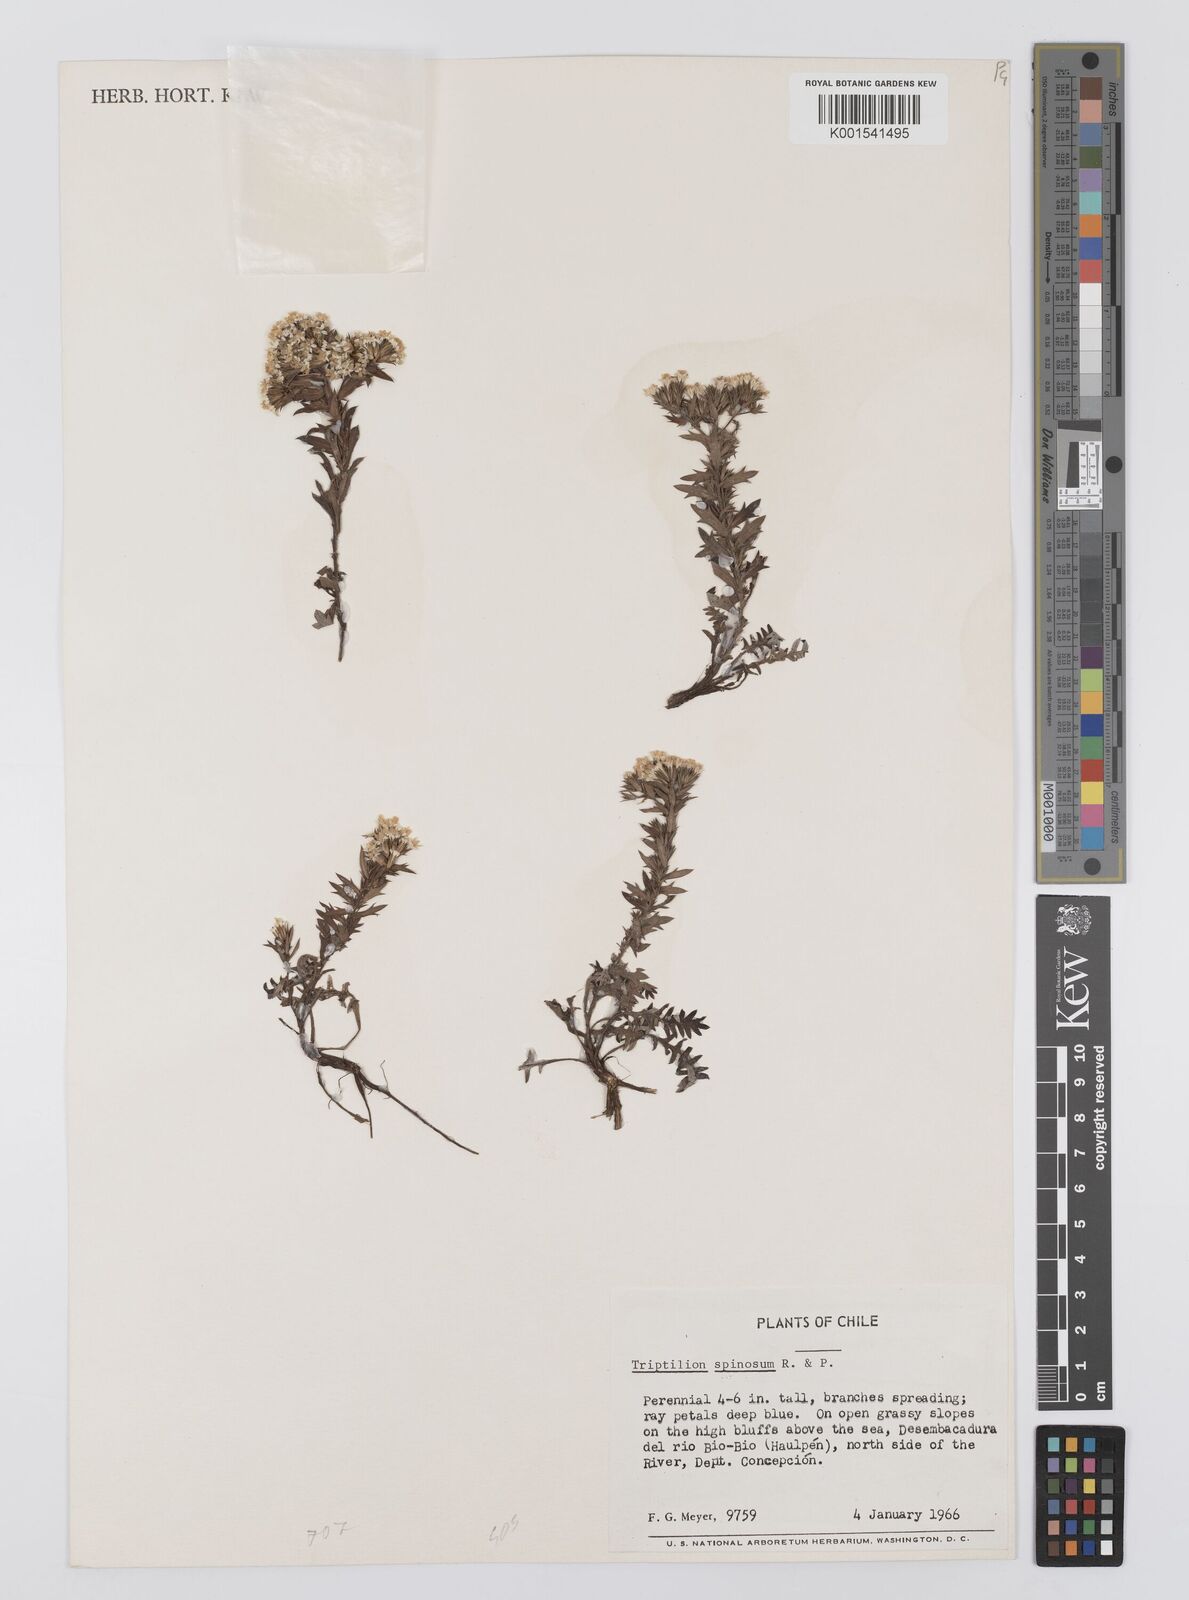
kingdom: Plantae
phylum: Tracheophyta
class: Magnoliopsida
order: Asterales
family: Asteraceae
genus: Triptilion
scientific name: Triptilion spinosum
